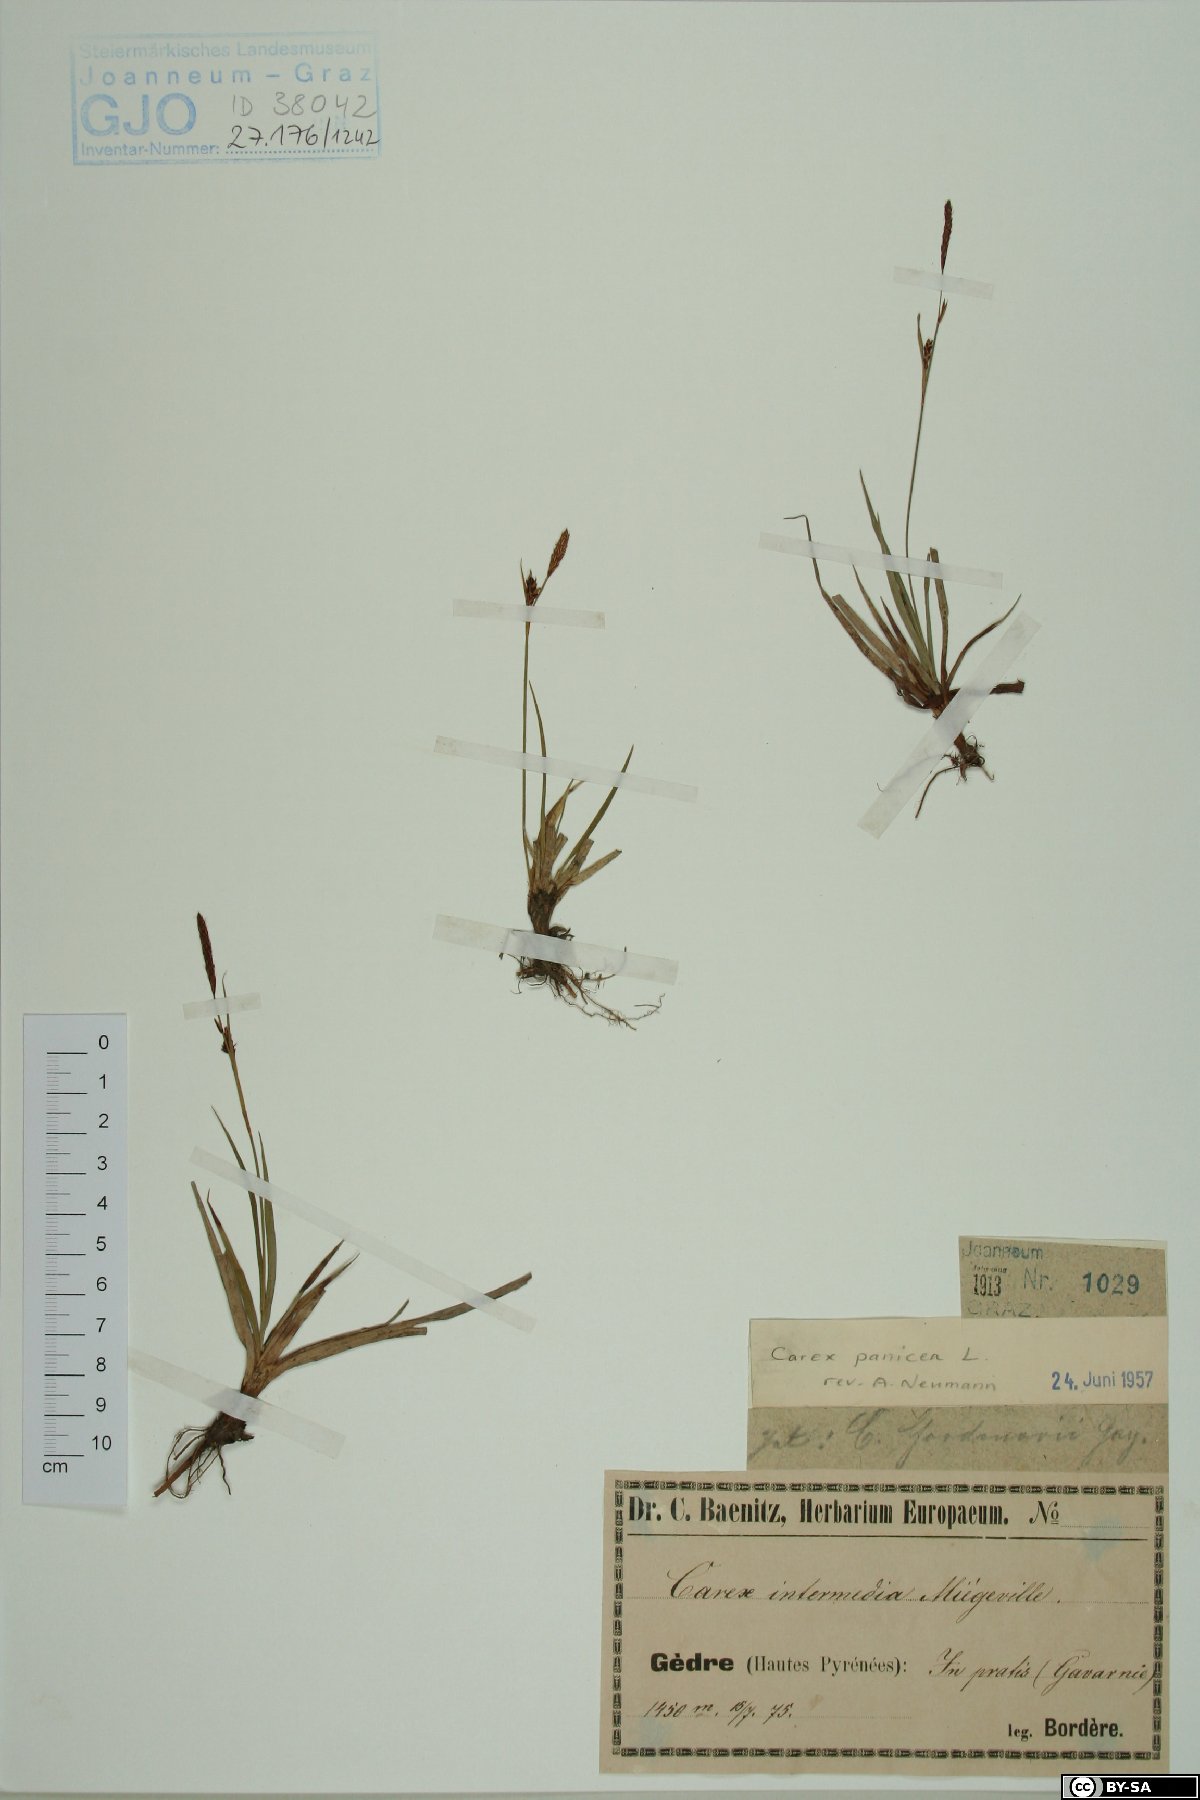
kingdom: Plantae
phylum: Tracheophyta
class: Liliopsida
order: Poales
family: Cyperaceae
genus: Carex
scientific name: Carex panicea
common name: Carnation sedge
